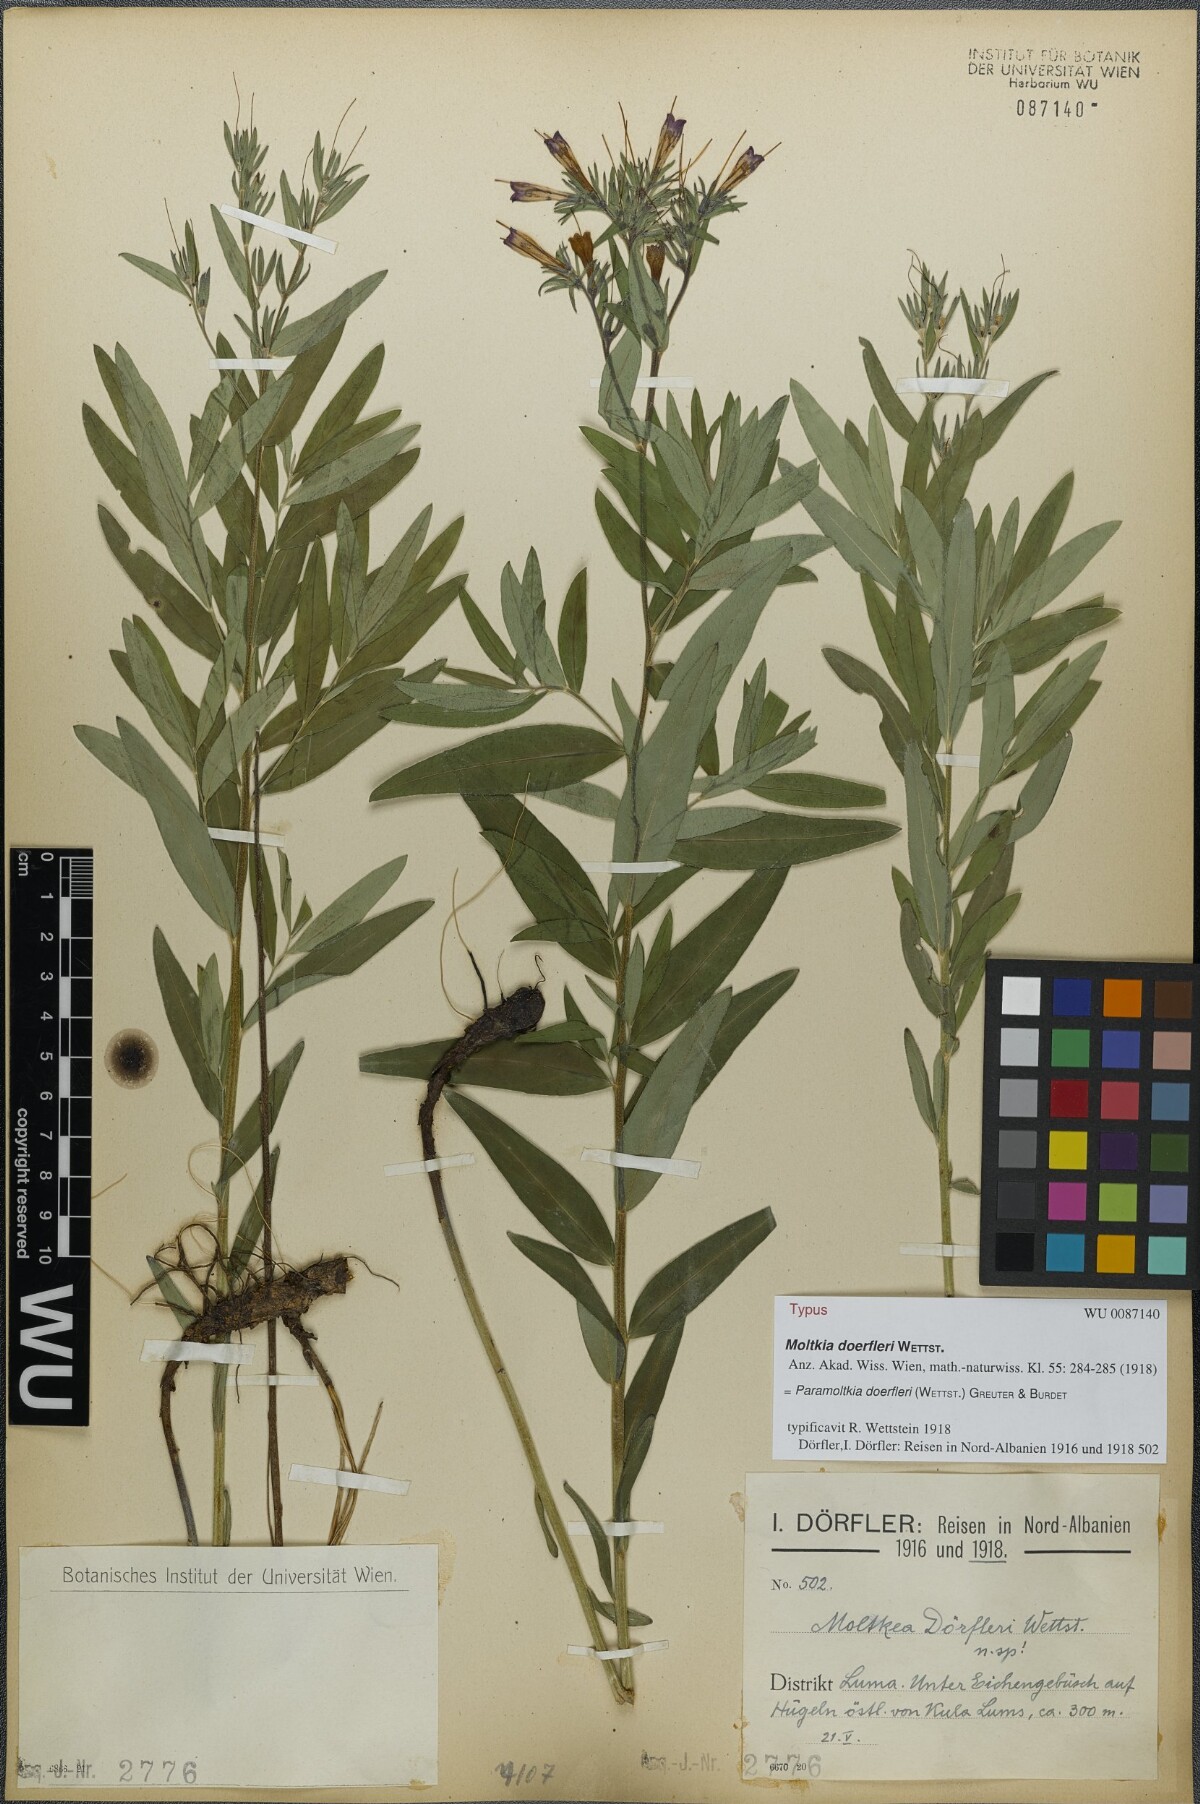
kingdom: Plantae
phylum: Tracheophyta
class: Magnoliopsida
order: Boraginales
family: Boraginaceae
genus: Paramoltkia
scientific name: Paramoltkia doerfleri
